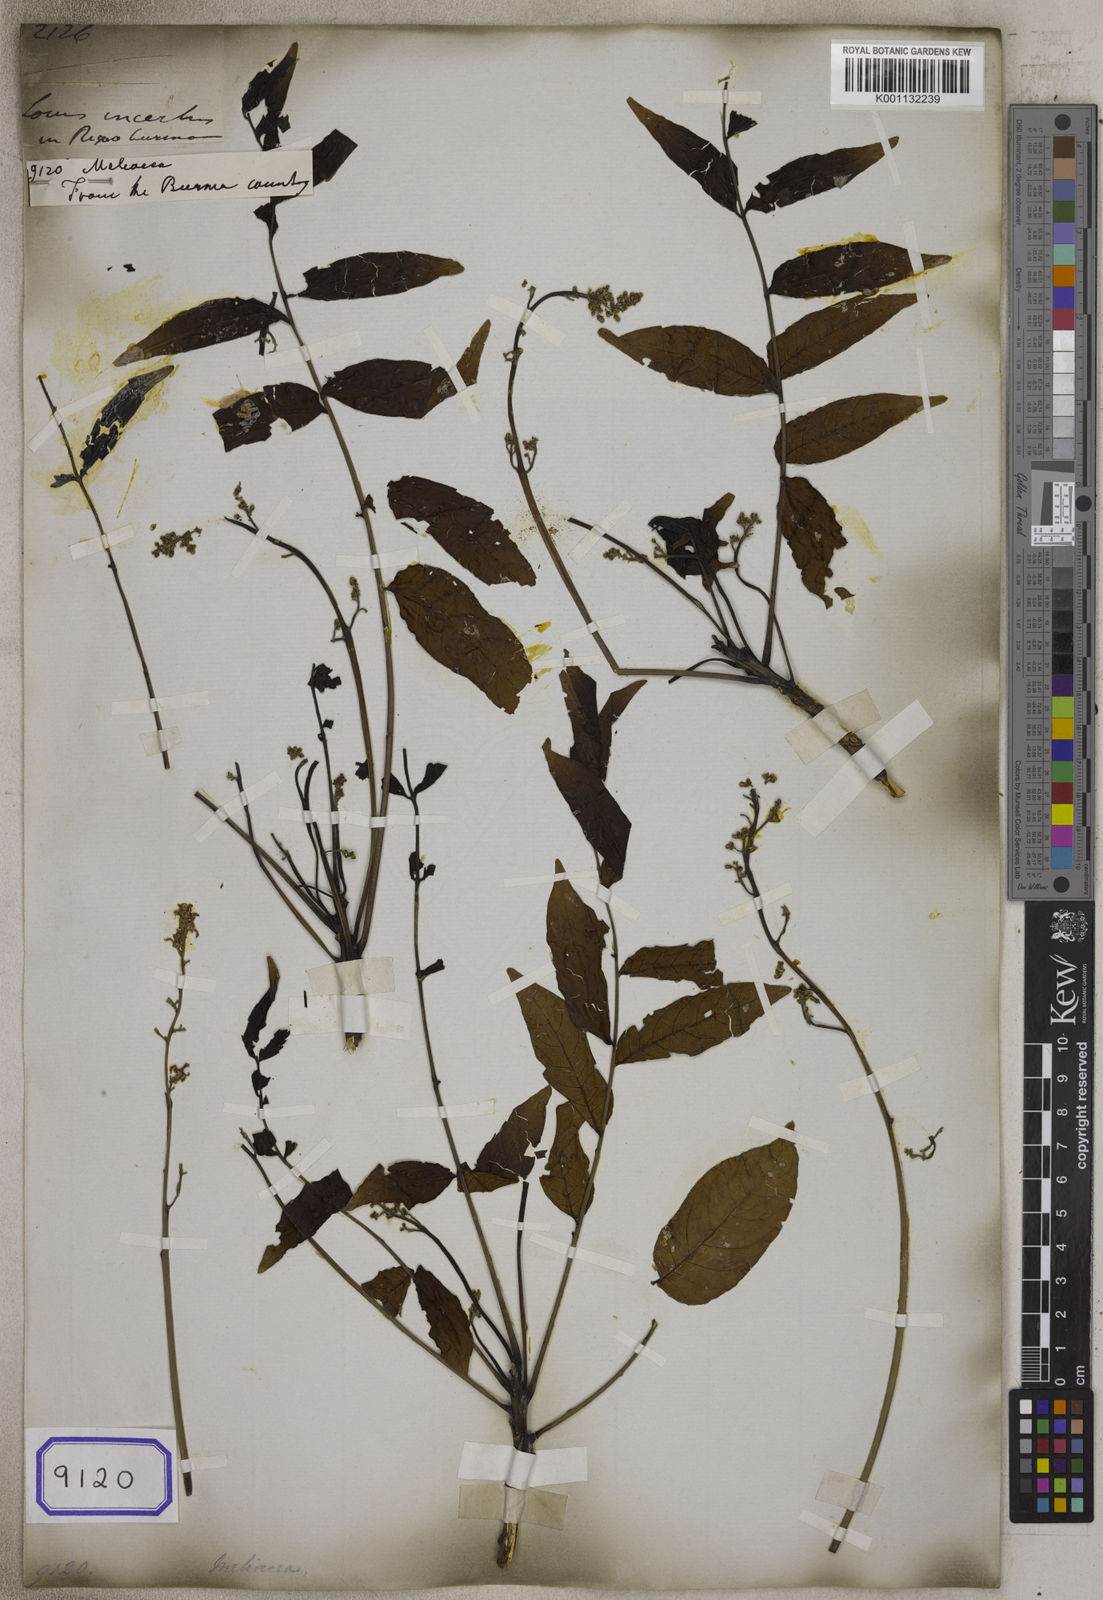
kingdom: Plantae
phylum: Tracheophyta
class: Magnoliopsida
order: Sapindales
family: Meliaceae
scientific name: Meliaceae
